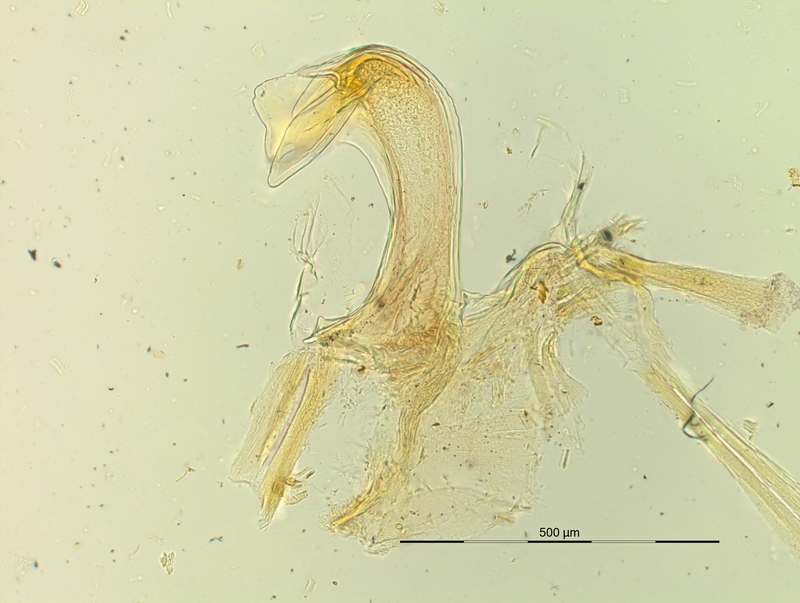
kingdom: Animalia
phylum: Arthropoda
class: Diplopoda
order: Chordeumatida
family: Craspedosomatidae
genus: Pyrgocyphosoma
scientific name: Pyrgocyphosoma brembanum
